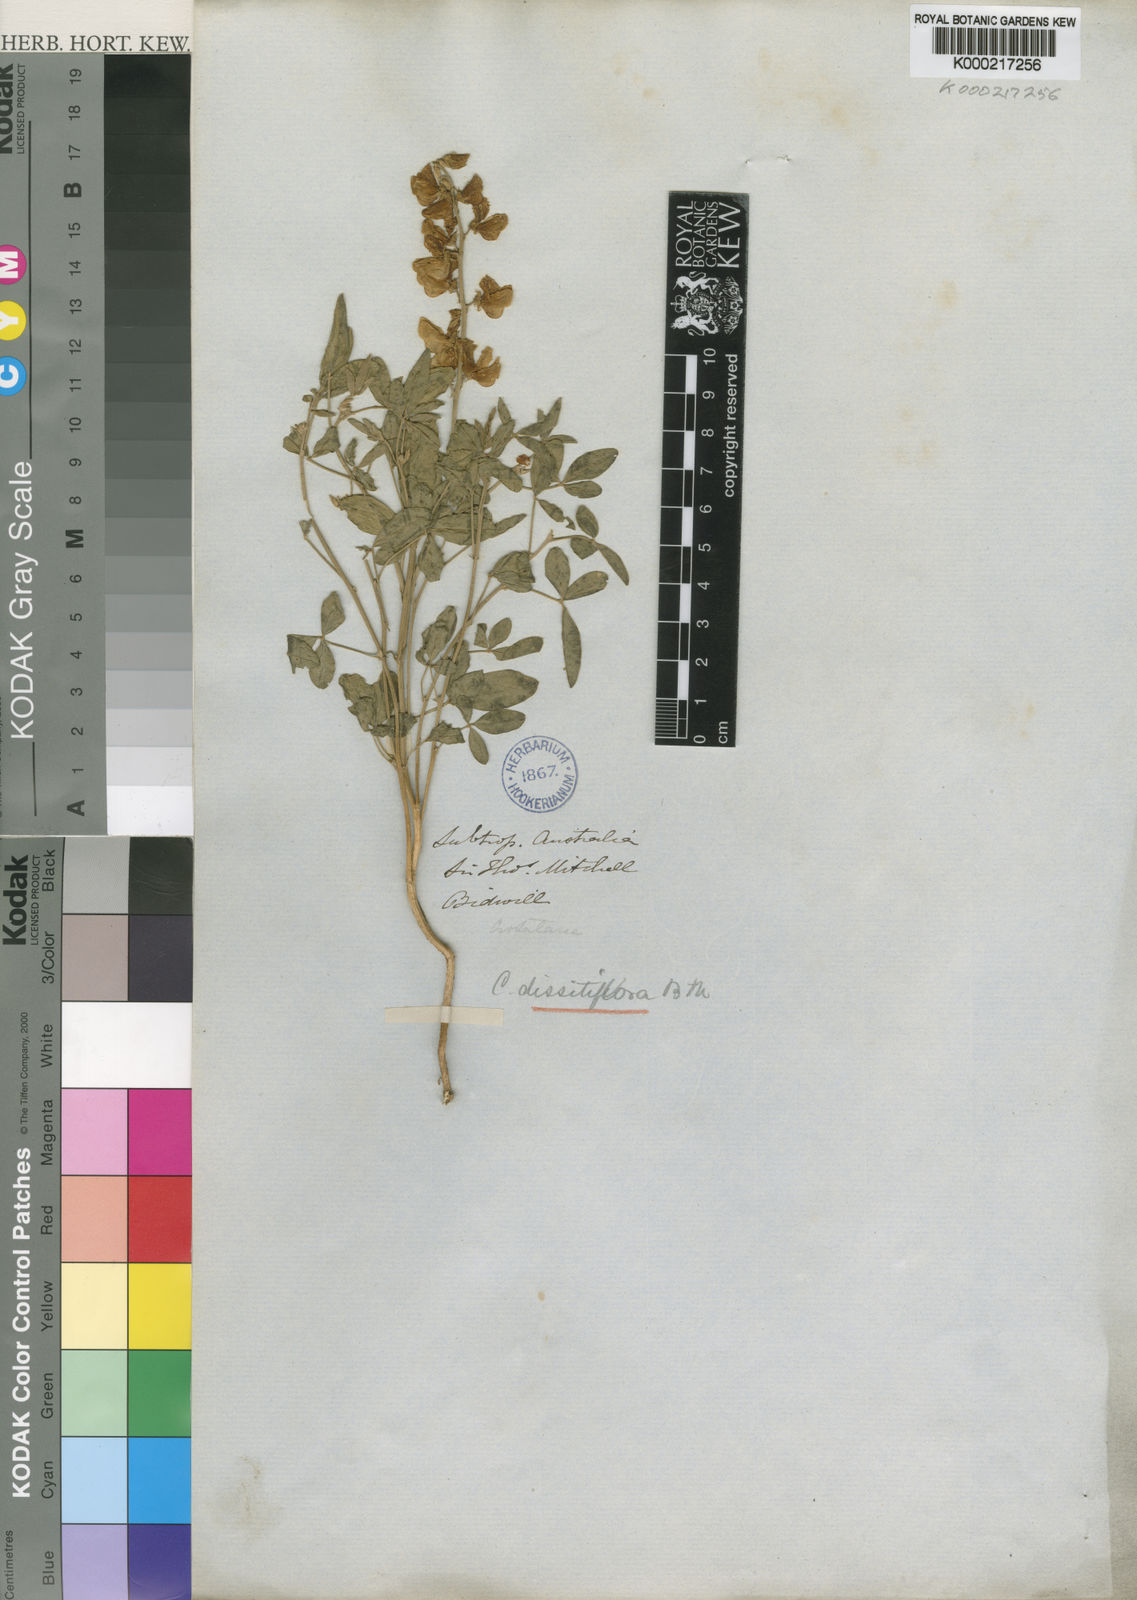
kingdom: Plantae
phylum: Tracheophyta
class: Magnoliopsida
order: Fabales
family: Fabaceae
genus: Crotalaria
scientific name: Crotalaria dissitiflora
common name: Grey rattlepod
